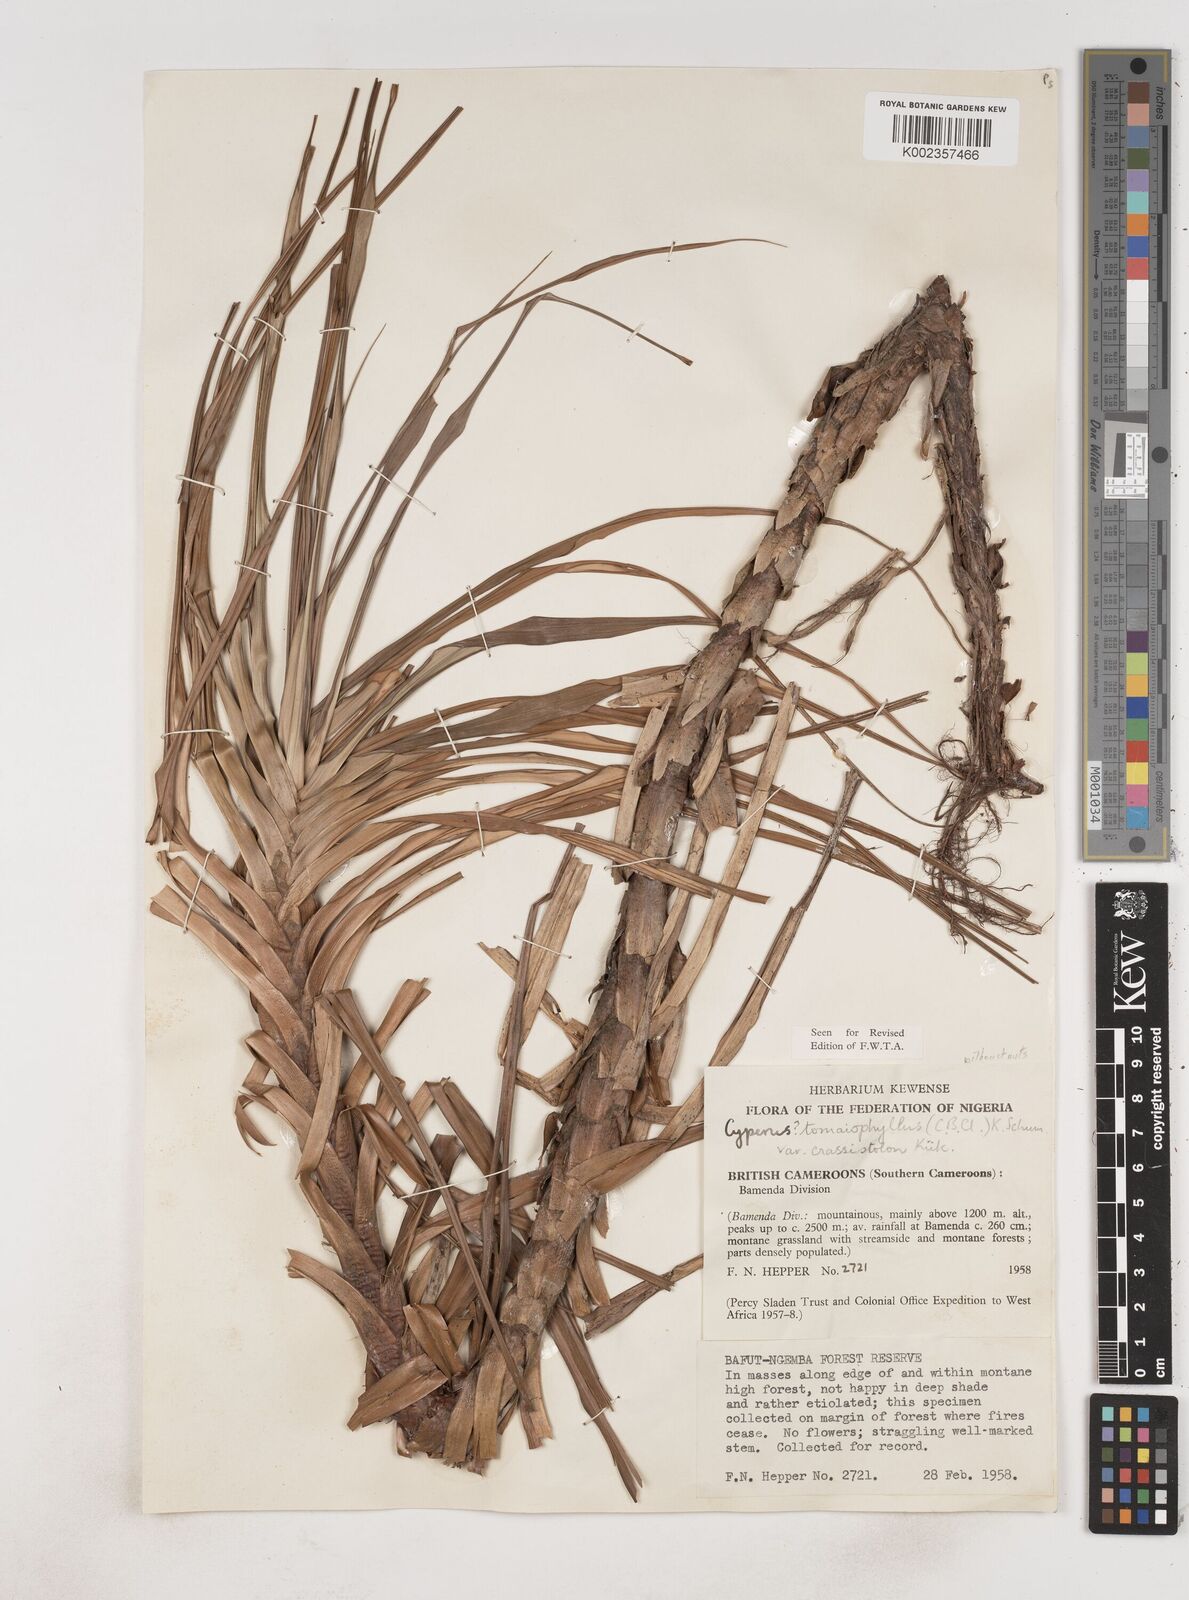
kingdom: Plantae
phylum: Tracheophyta
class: Liliopsida
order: Poales
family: Cyperaceae
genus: Cyperus
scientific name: Cyperus tomaiophyllus
